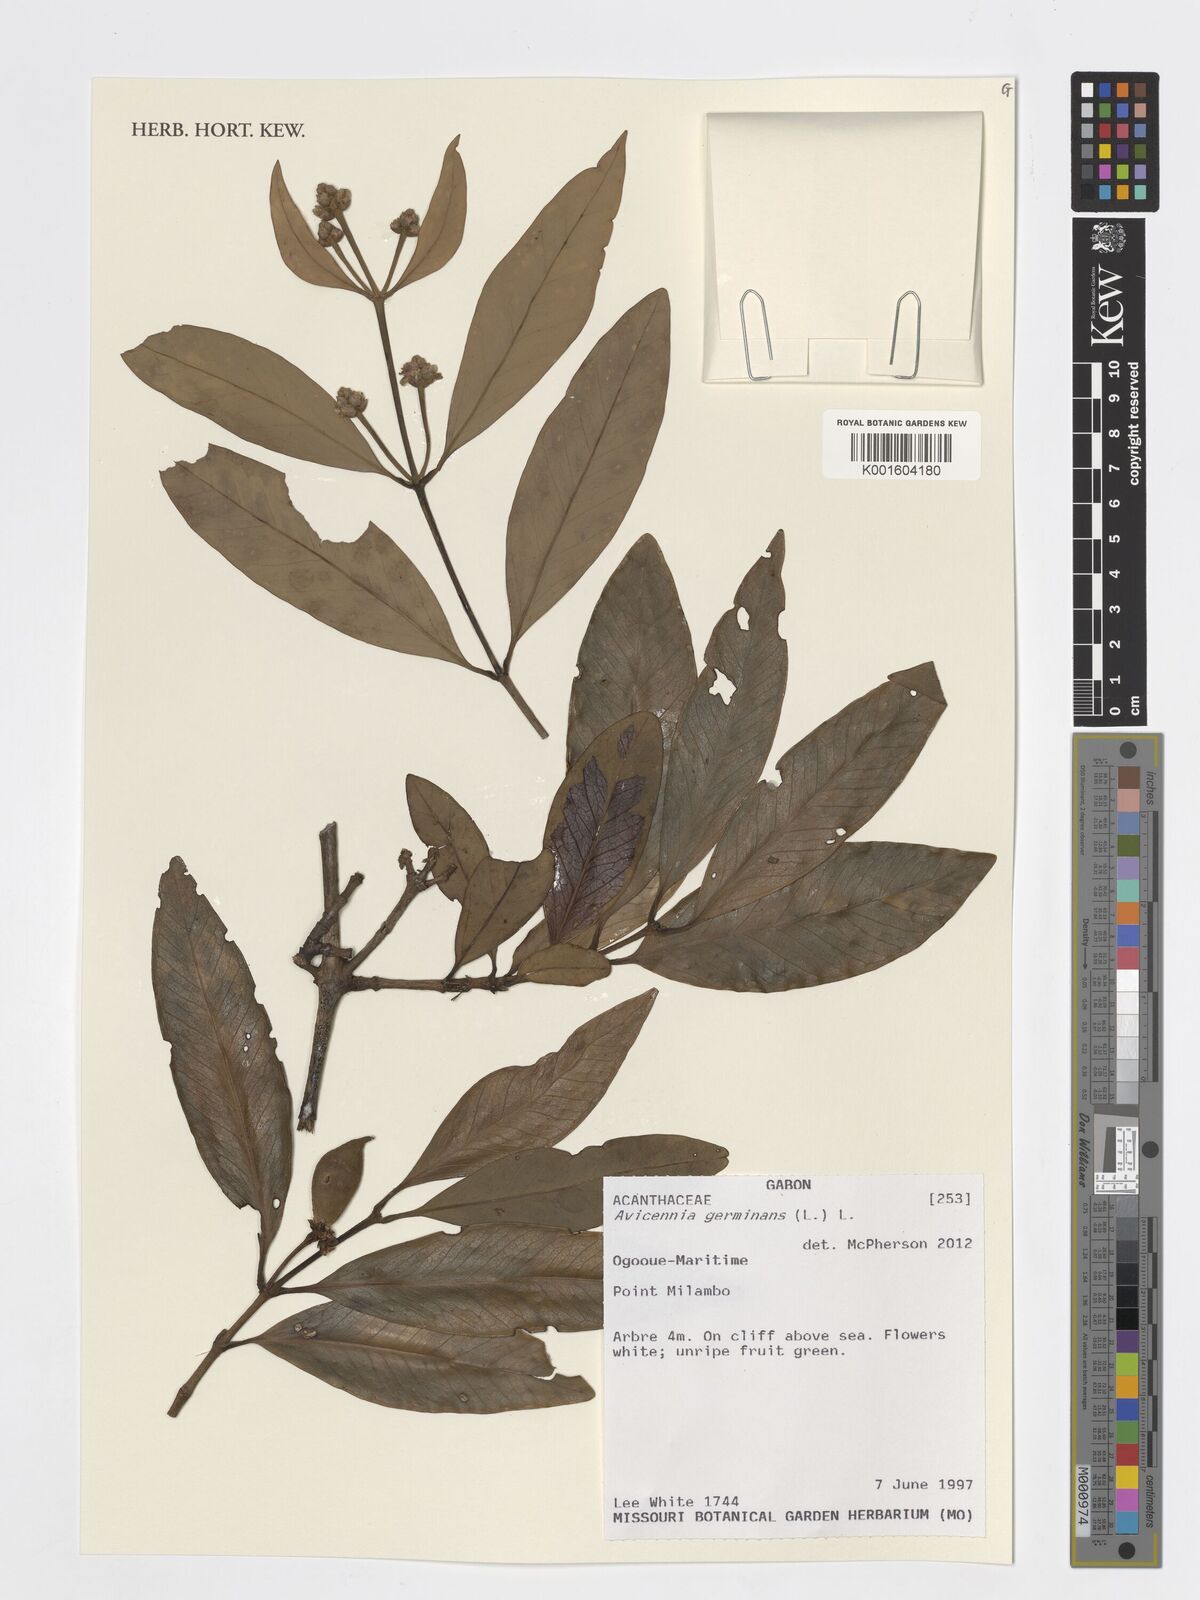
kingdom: Plantae
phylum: Tracheophyta
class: Magnoliopsida
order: Lamiales
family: Acanthaceae
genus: Avicennia
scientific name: Avicennia germinans
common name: Black mangrove
